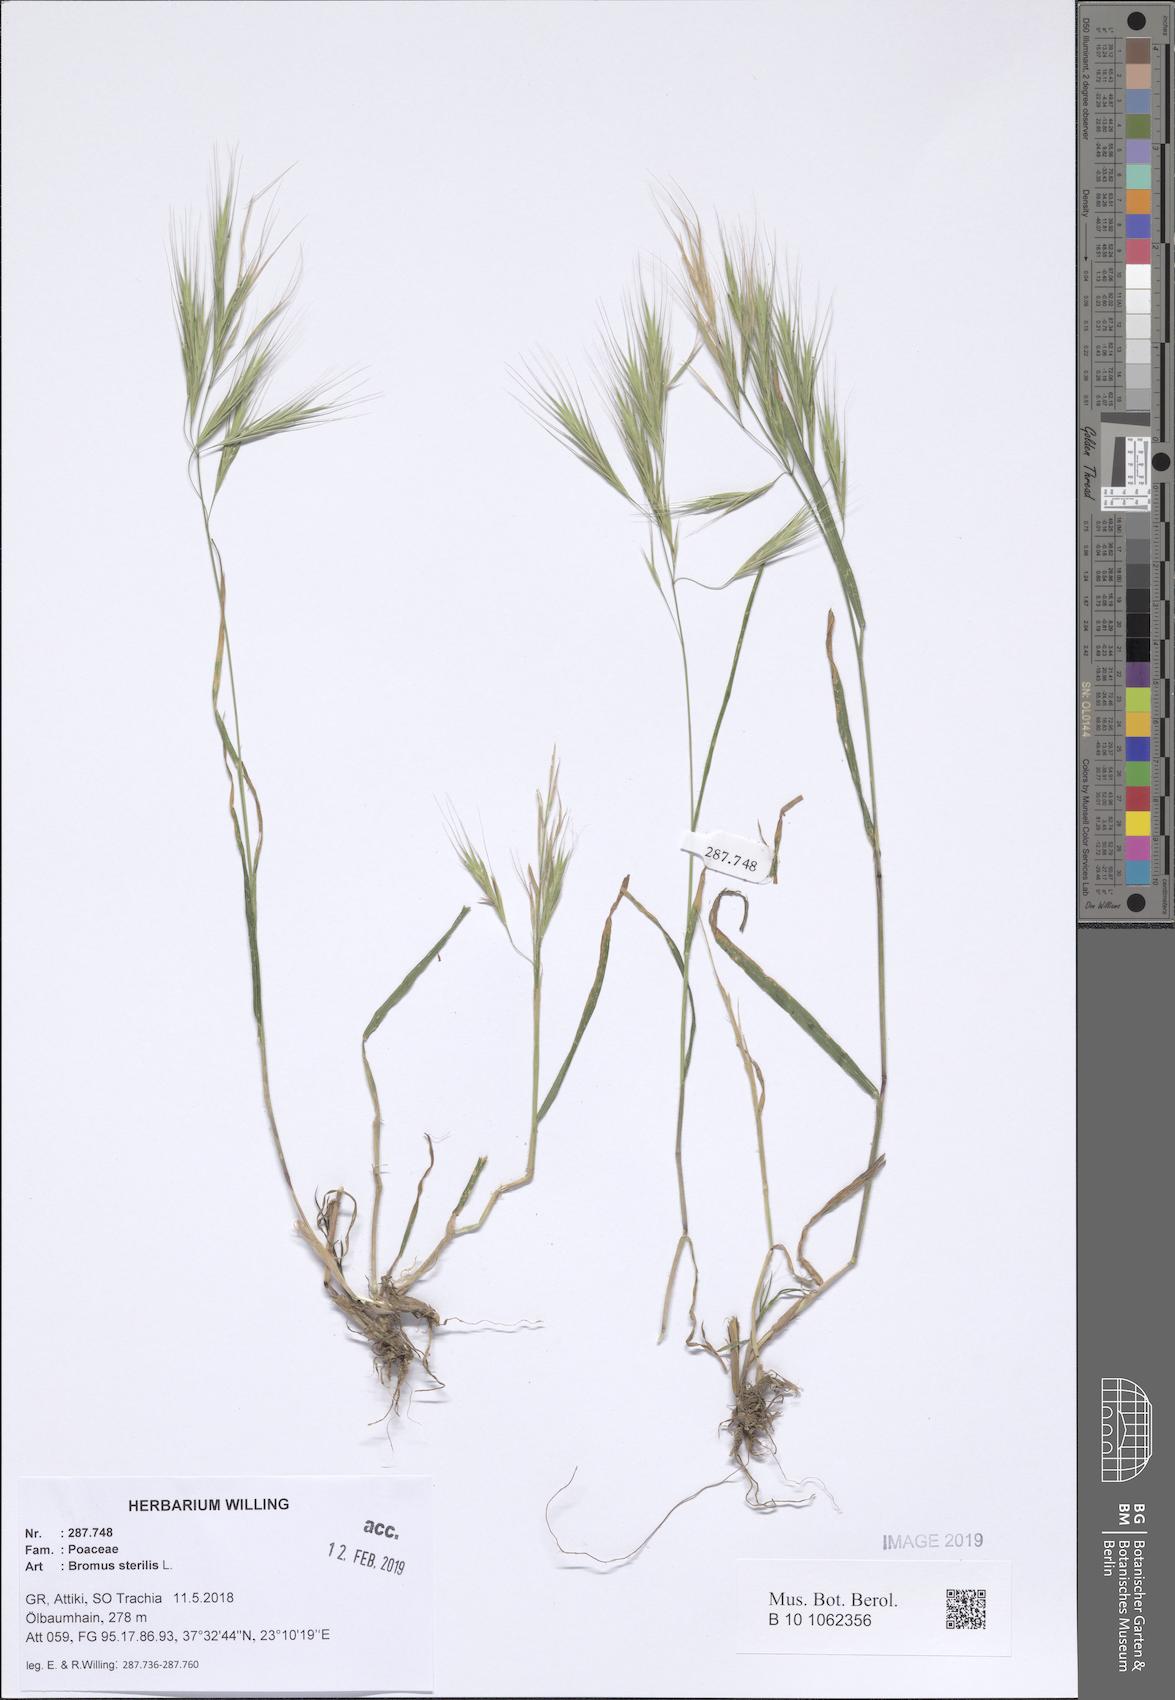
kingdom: Plantae
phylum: Tracheophyta
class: Liliopsida
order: Poales
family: Poaceae
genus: Bromus
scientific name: Bromus sterilis
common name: Poverty brome
